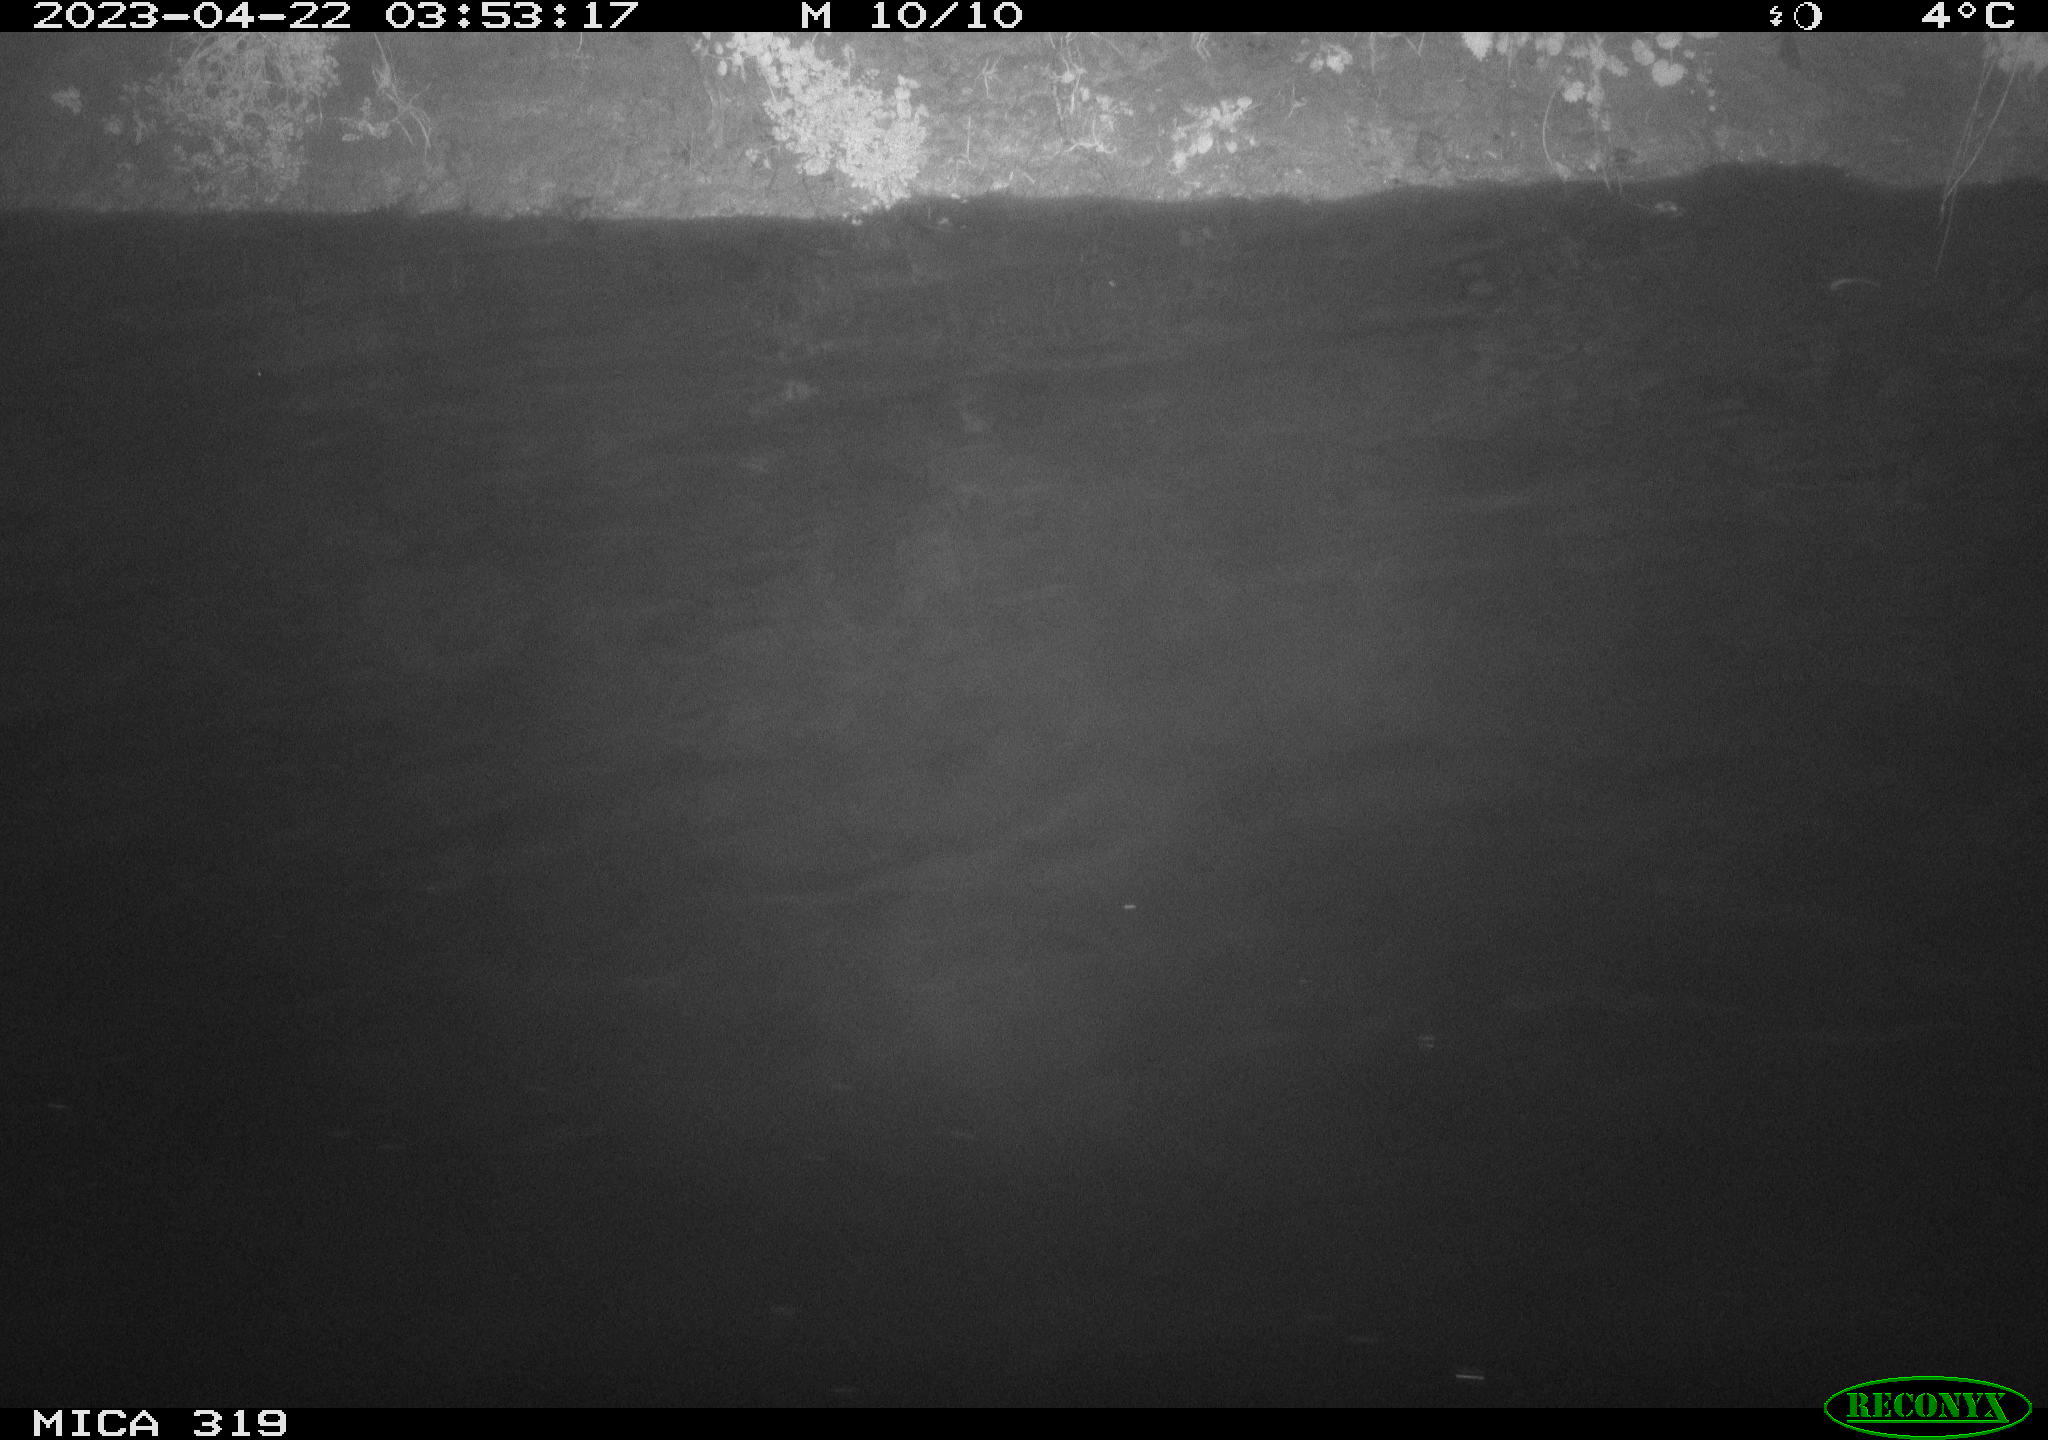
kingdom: Animalia
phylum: Chordata
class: Aves
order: Anseriformes
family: Anatidae
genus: Anas
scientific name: Anas
